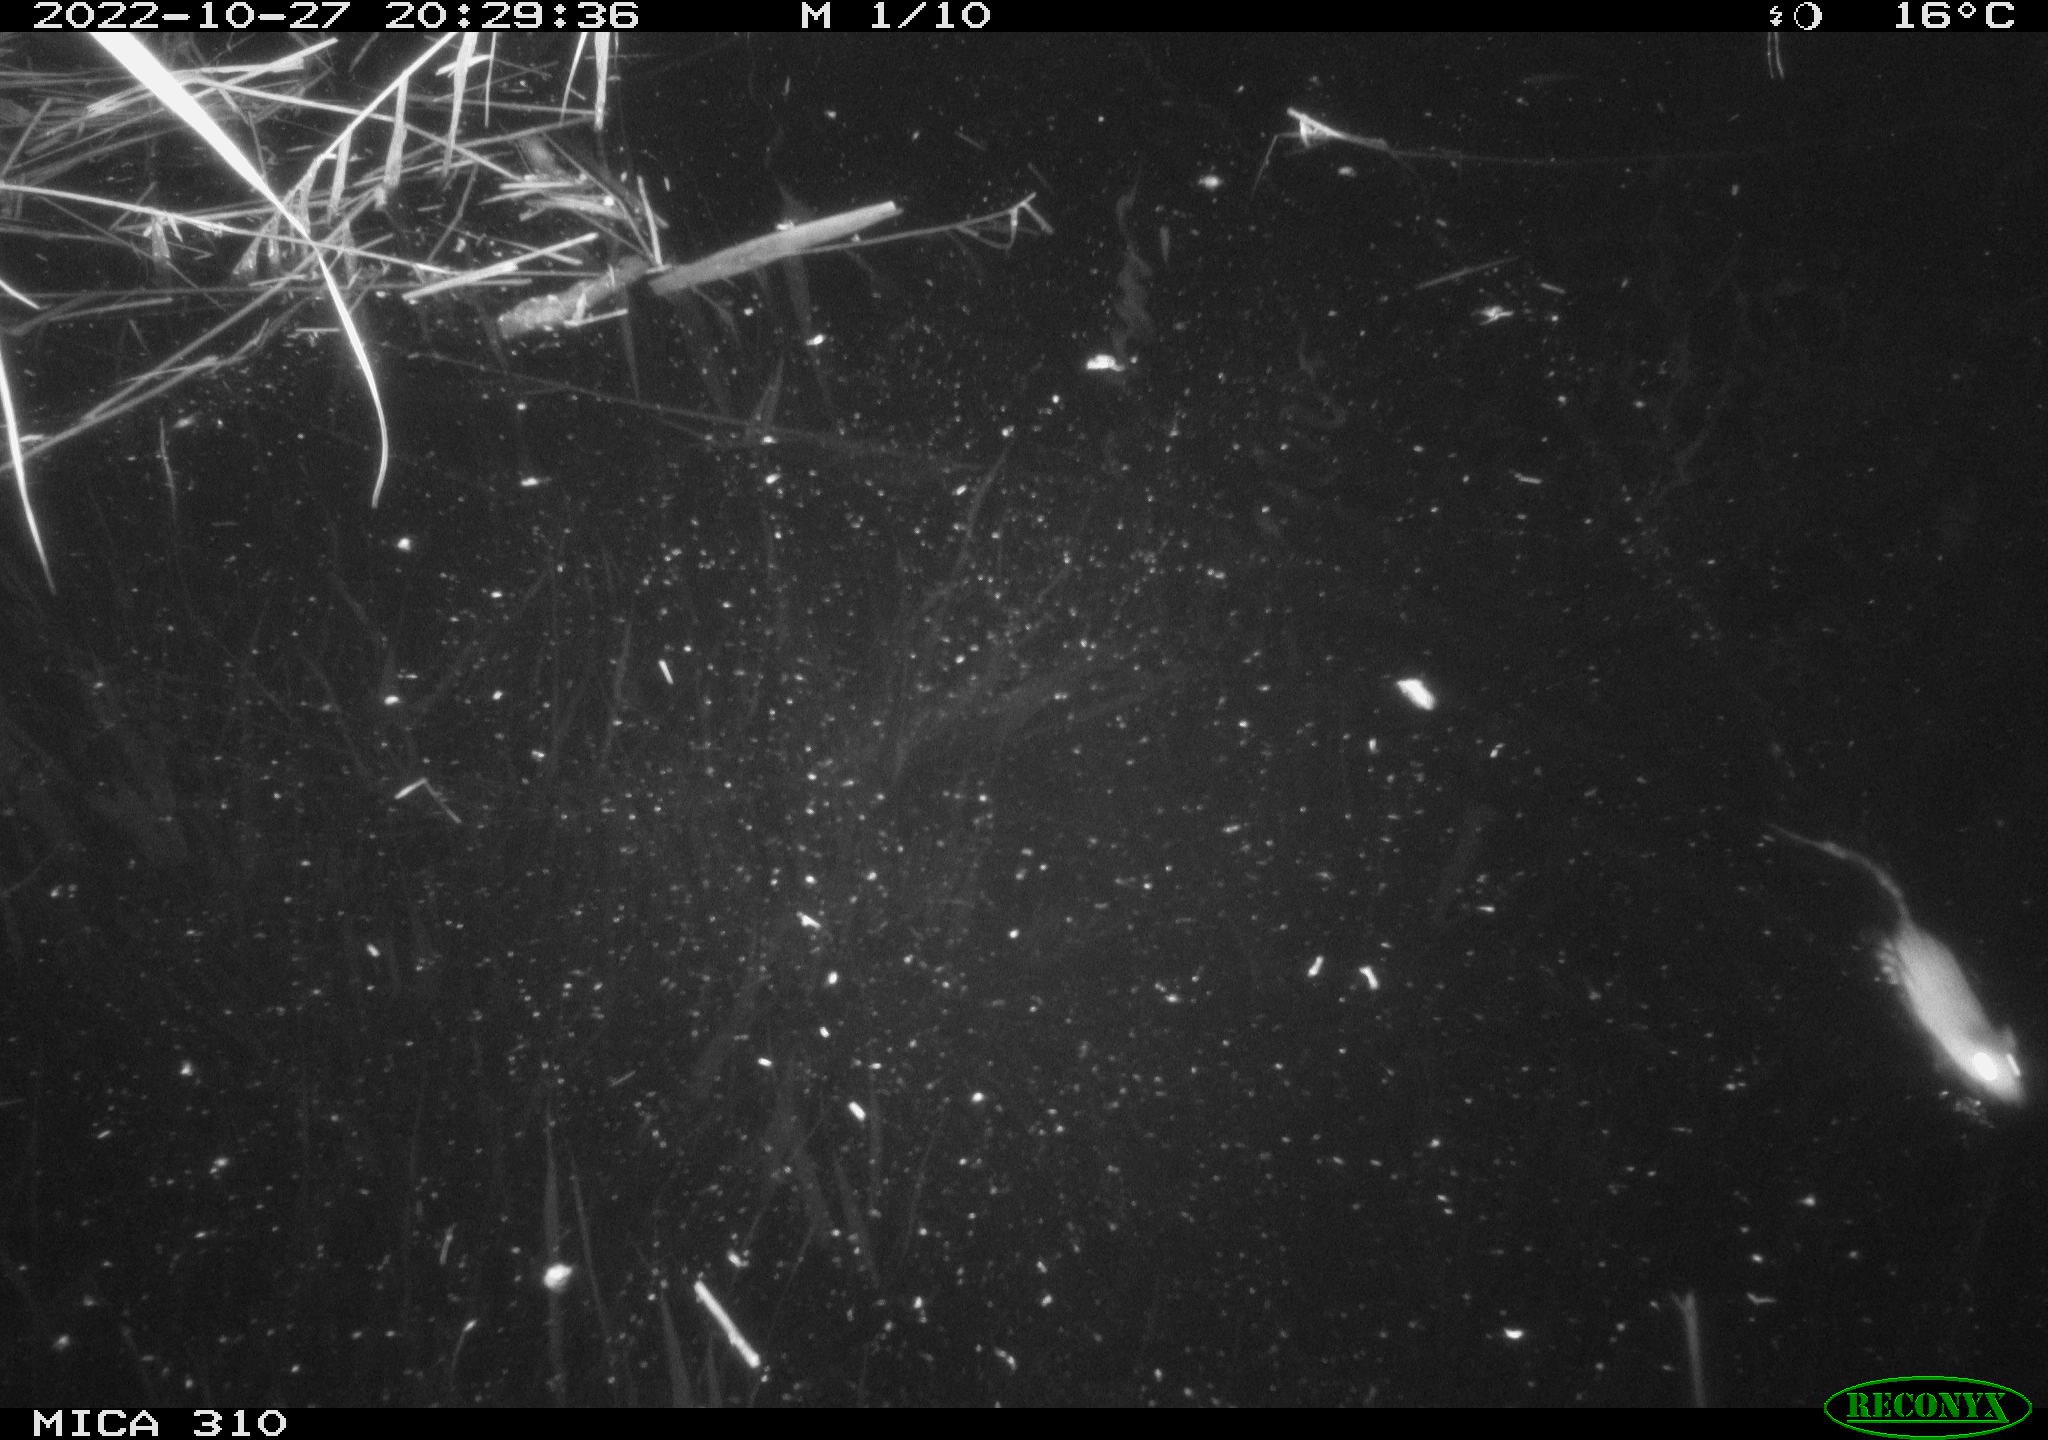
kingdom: Animalia
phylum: Chordata
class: Mammalia
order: Rodentia
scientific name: Rodentia
